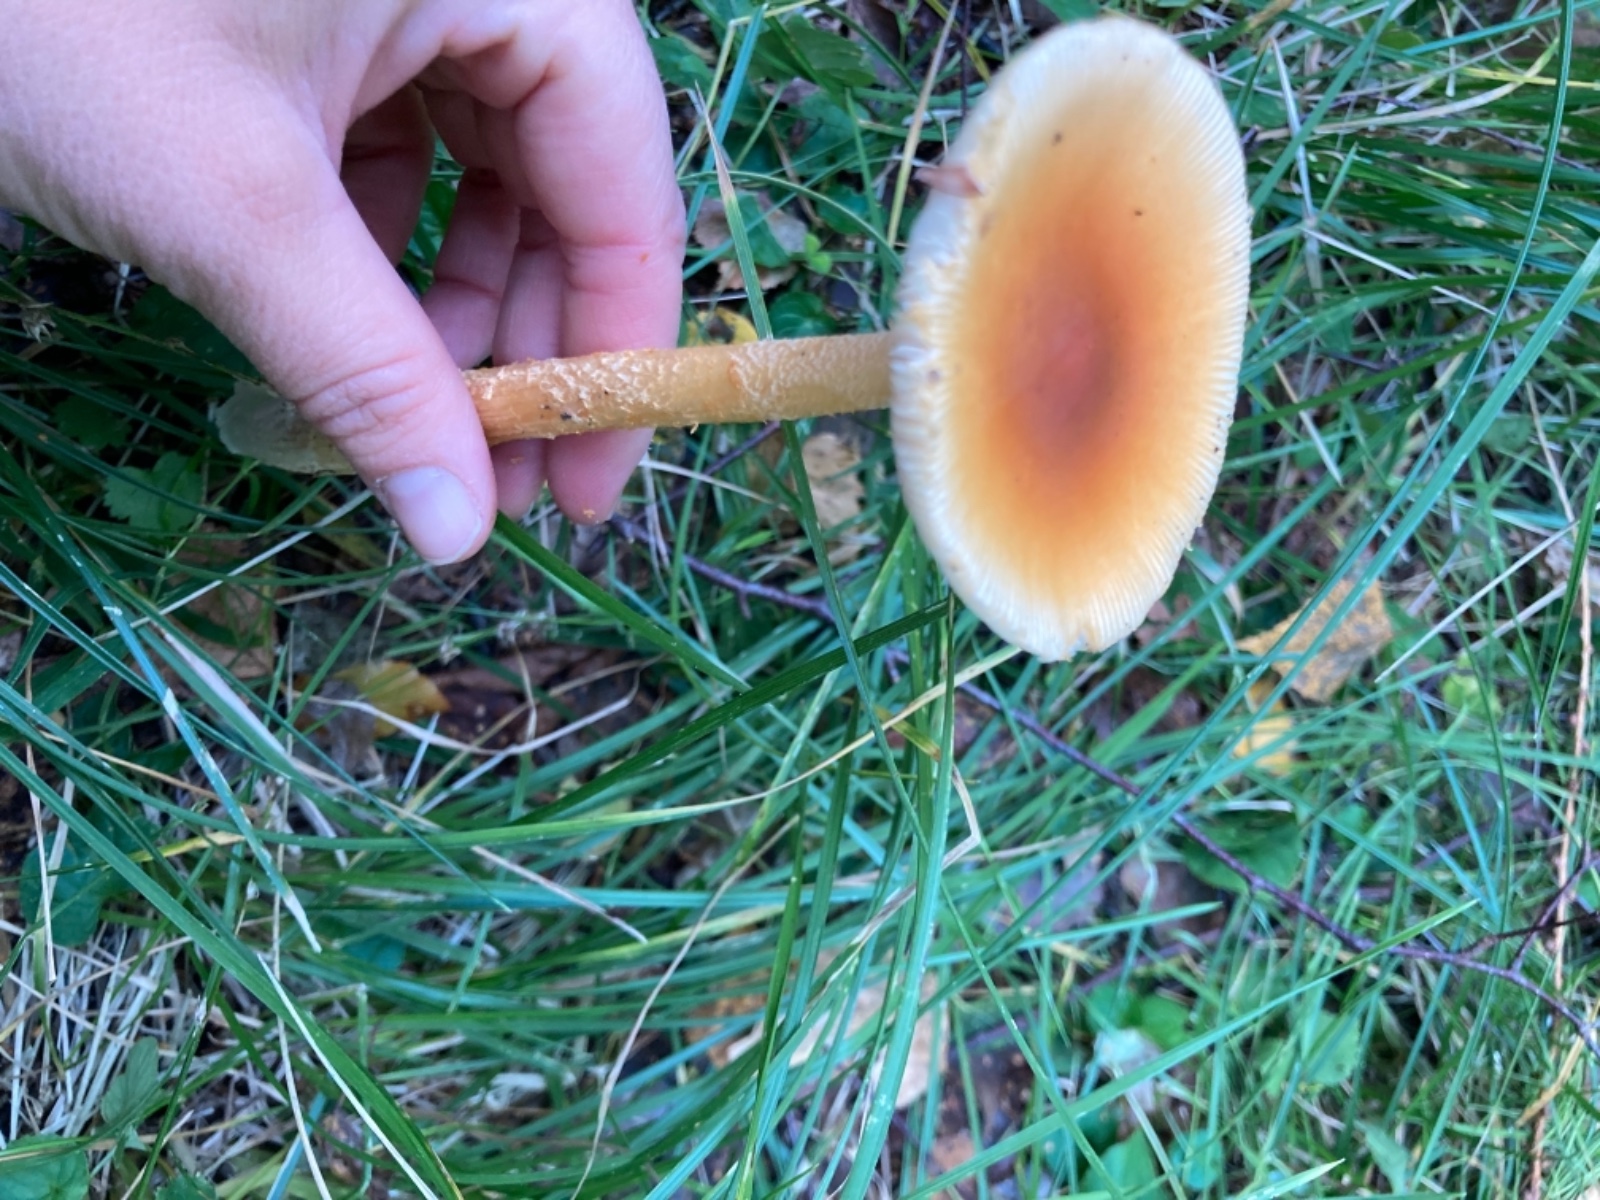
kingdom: Fungi
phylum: Basidiomycota
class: Agaricomycetes
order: Agaricales
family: Amanitaceae
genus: Amanita
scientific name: Amanita crocea
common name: gylden kam-fluesvamp
